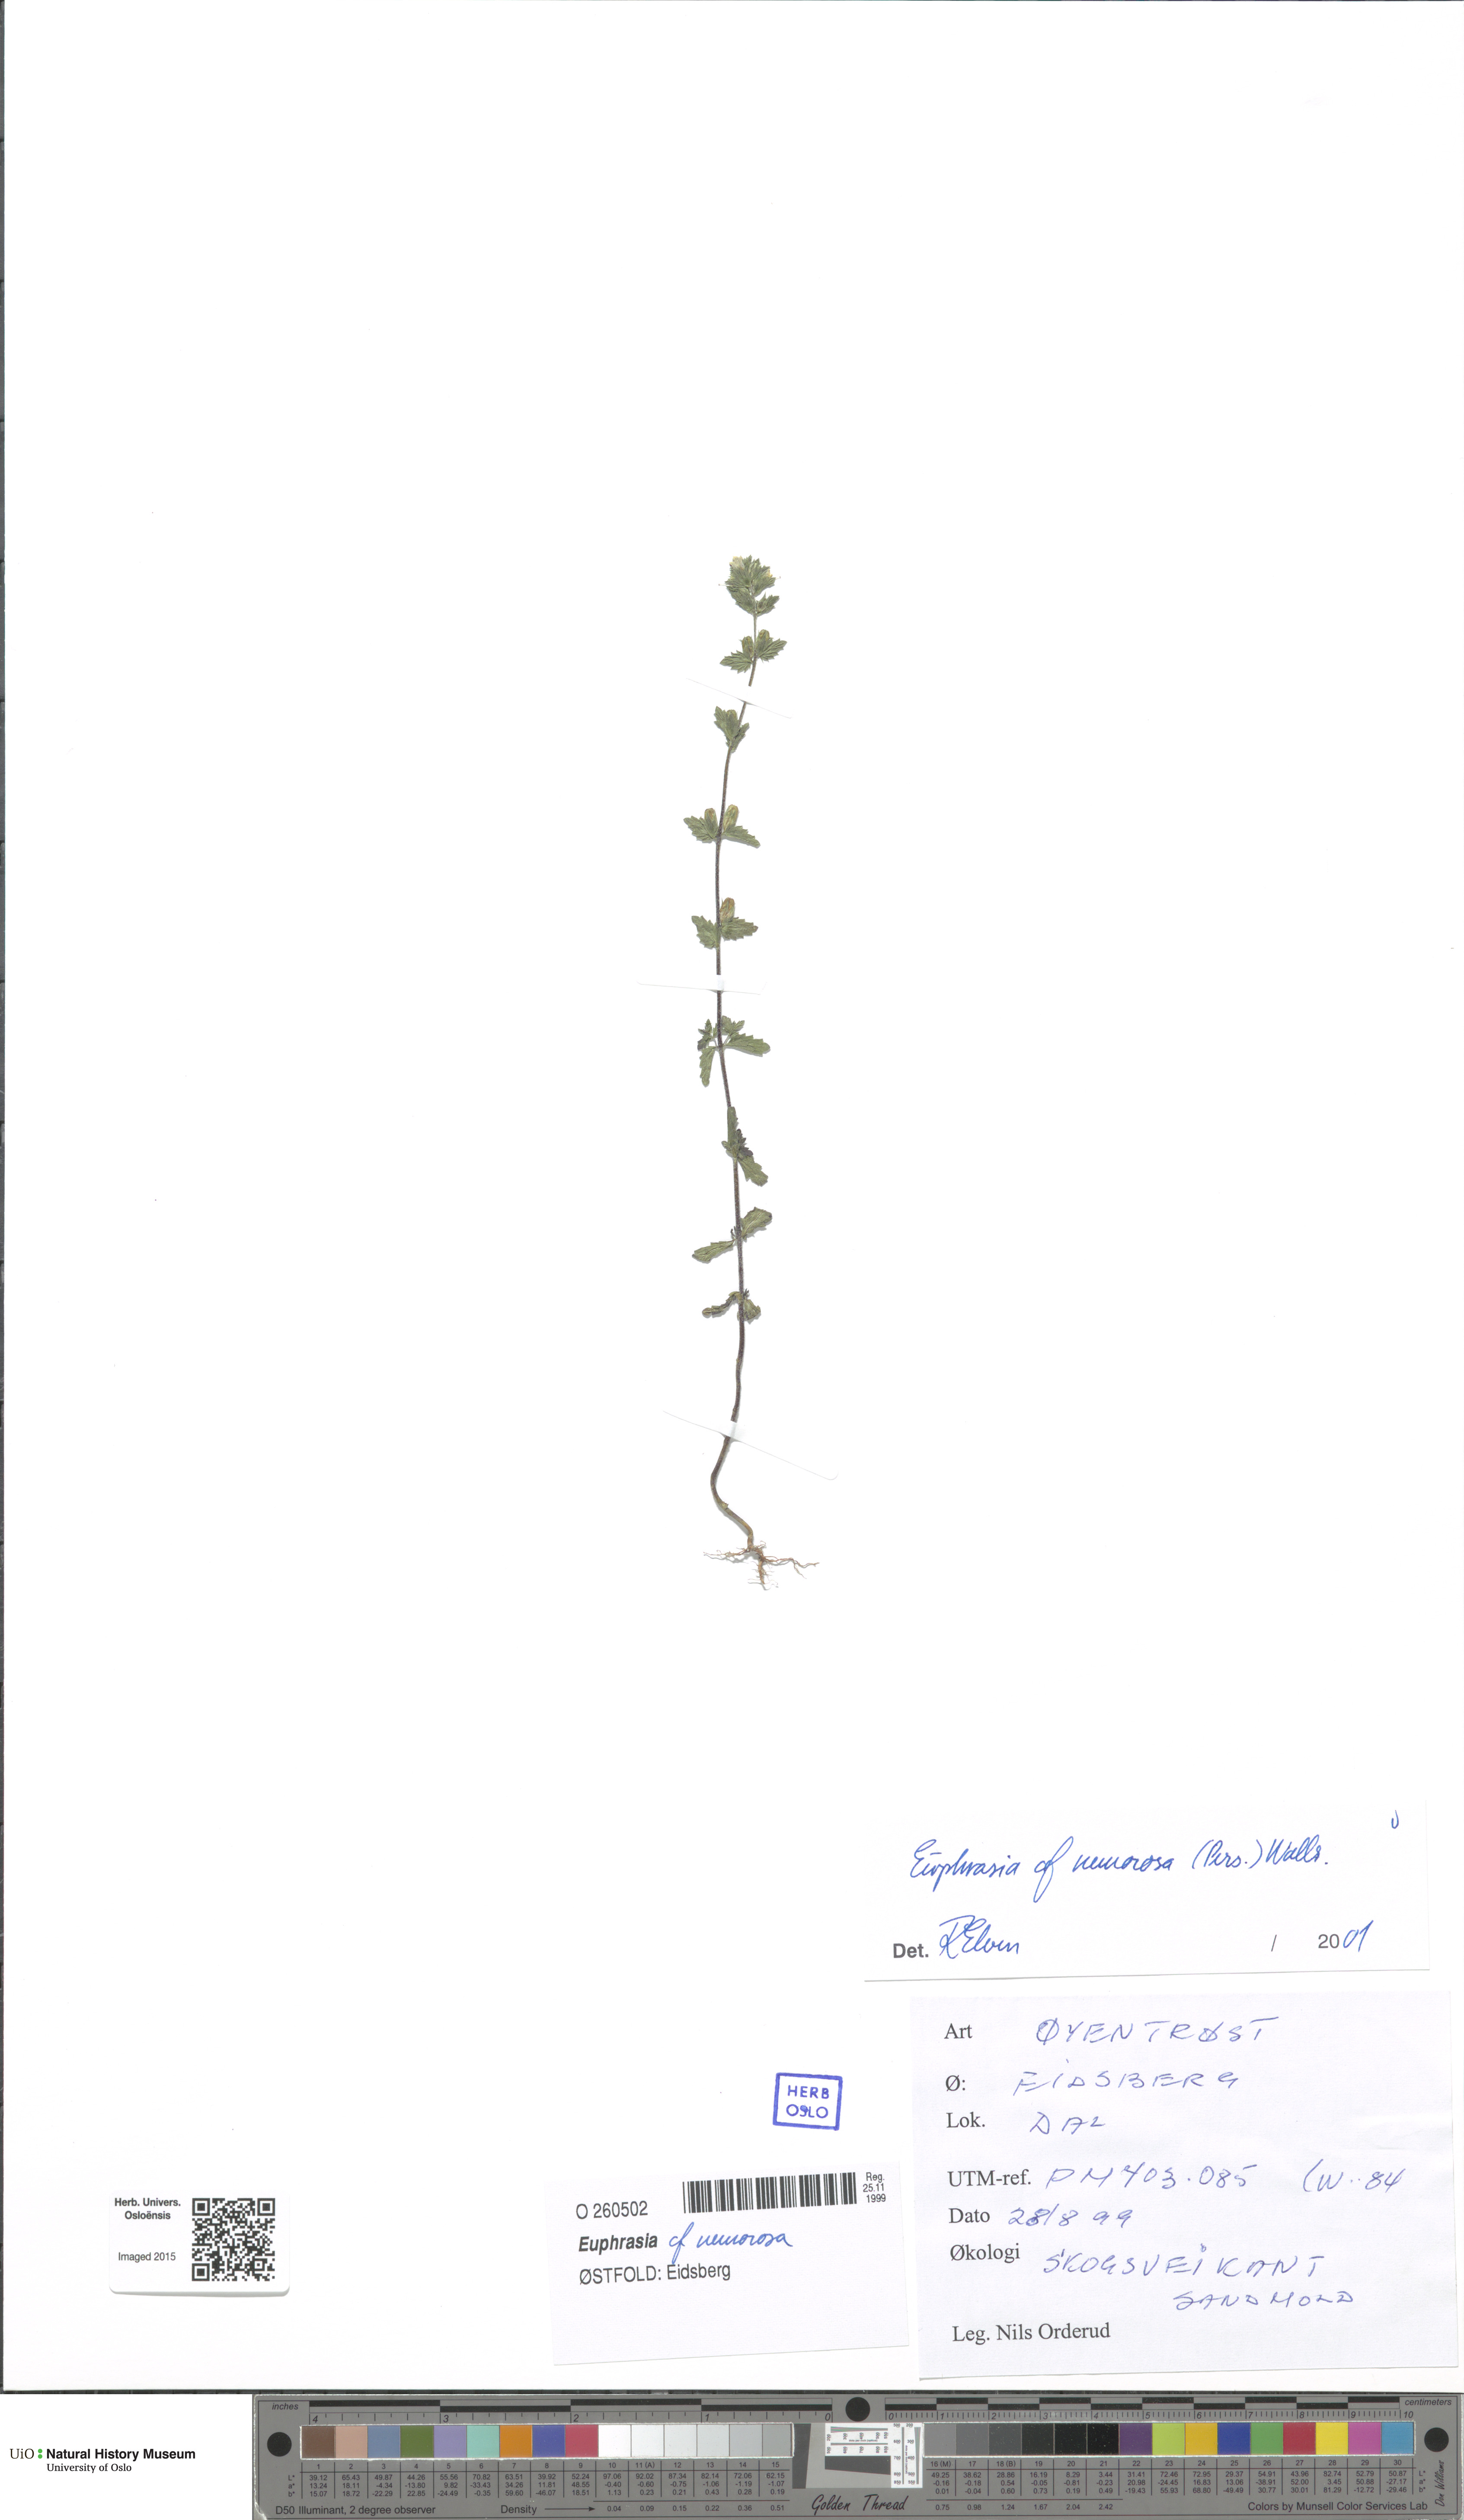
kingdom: Plantae
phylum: Tracheophyta
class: Magnoliopsida
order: Lamiales
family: Orobanchaceae
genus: Euphrasia
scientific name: Euphrasia nemorosa
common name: Common eyebright
